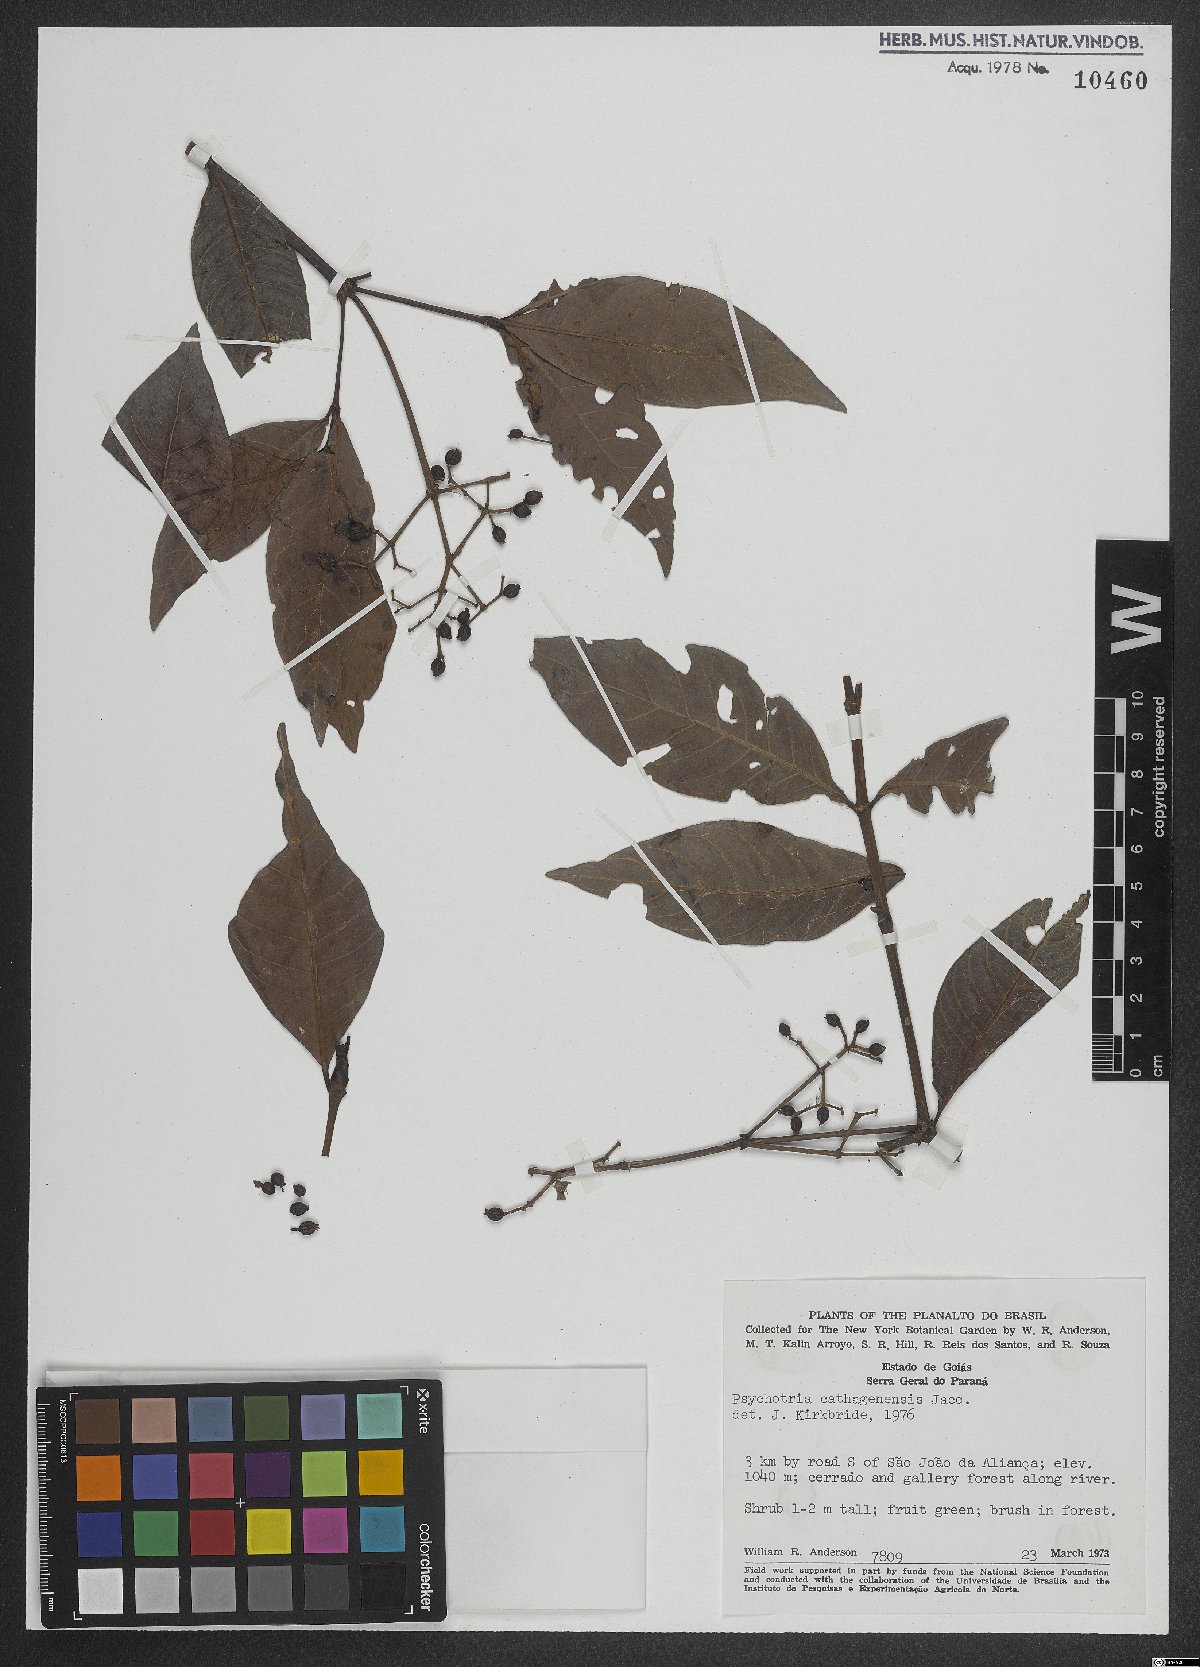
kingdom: Plantae
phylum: Tracheophyta
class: Magnoliopsida
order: Gentianales
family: Rubiaceae
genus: Psychotria
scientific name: Psychotria carthagenensis
